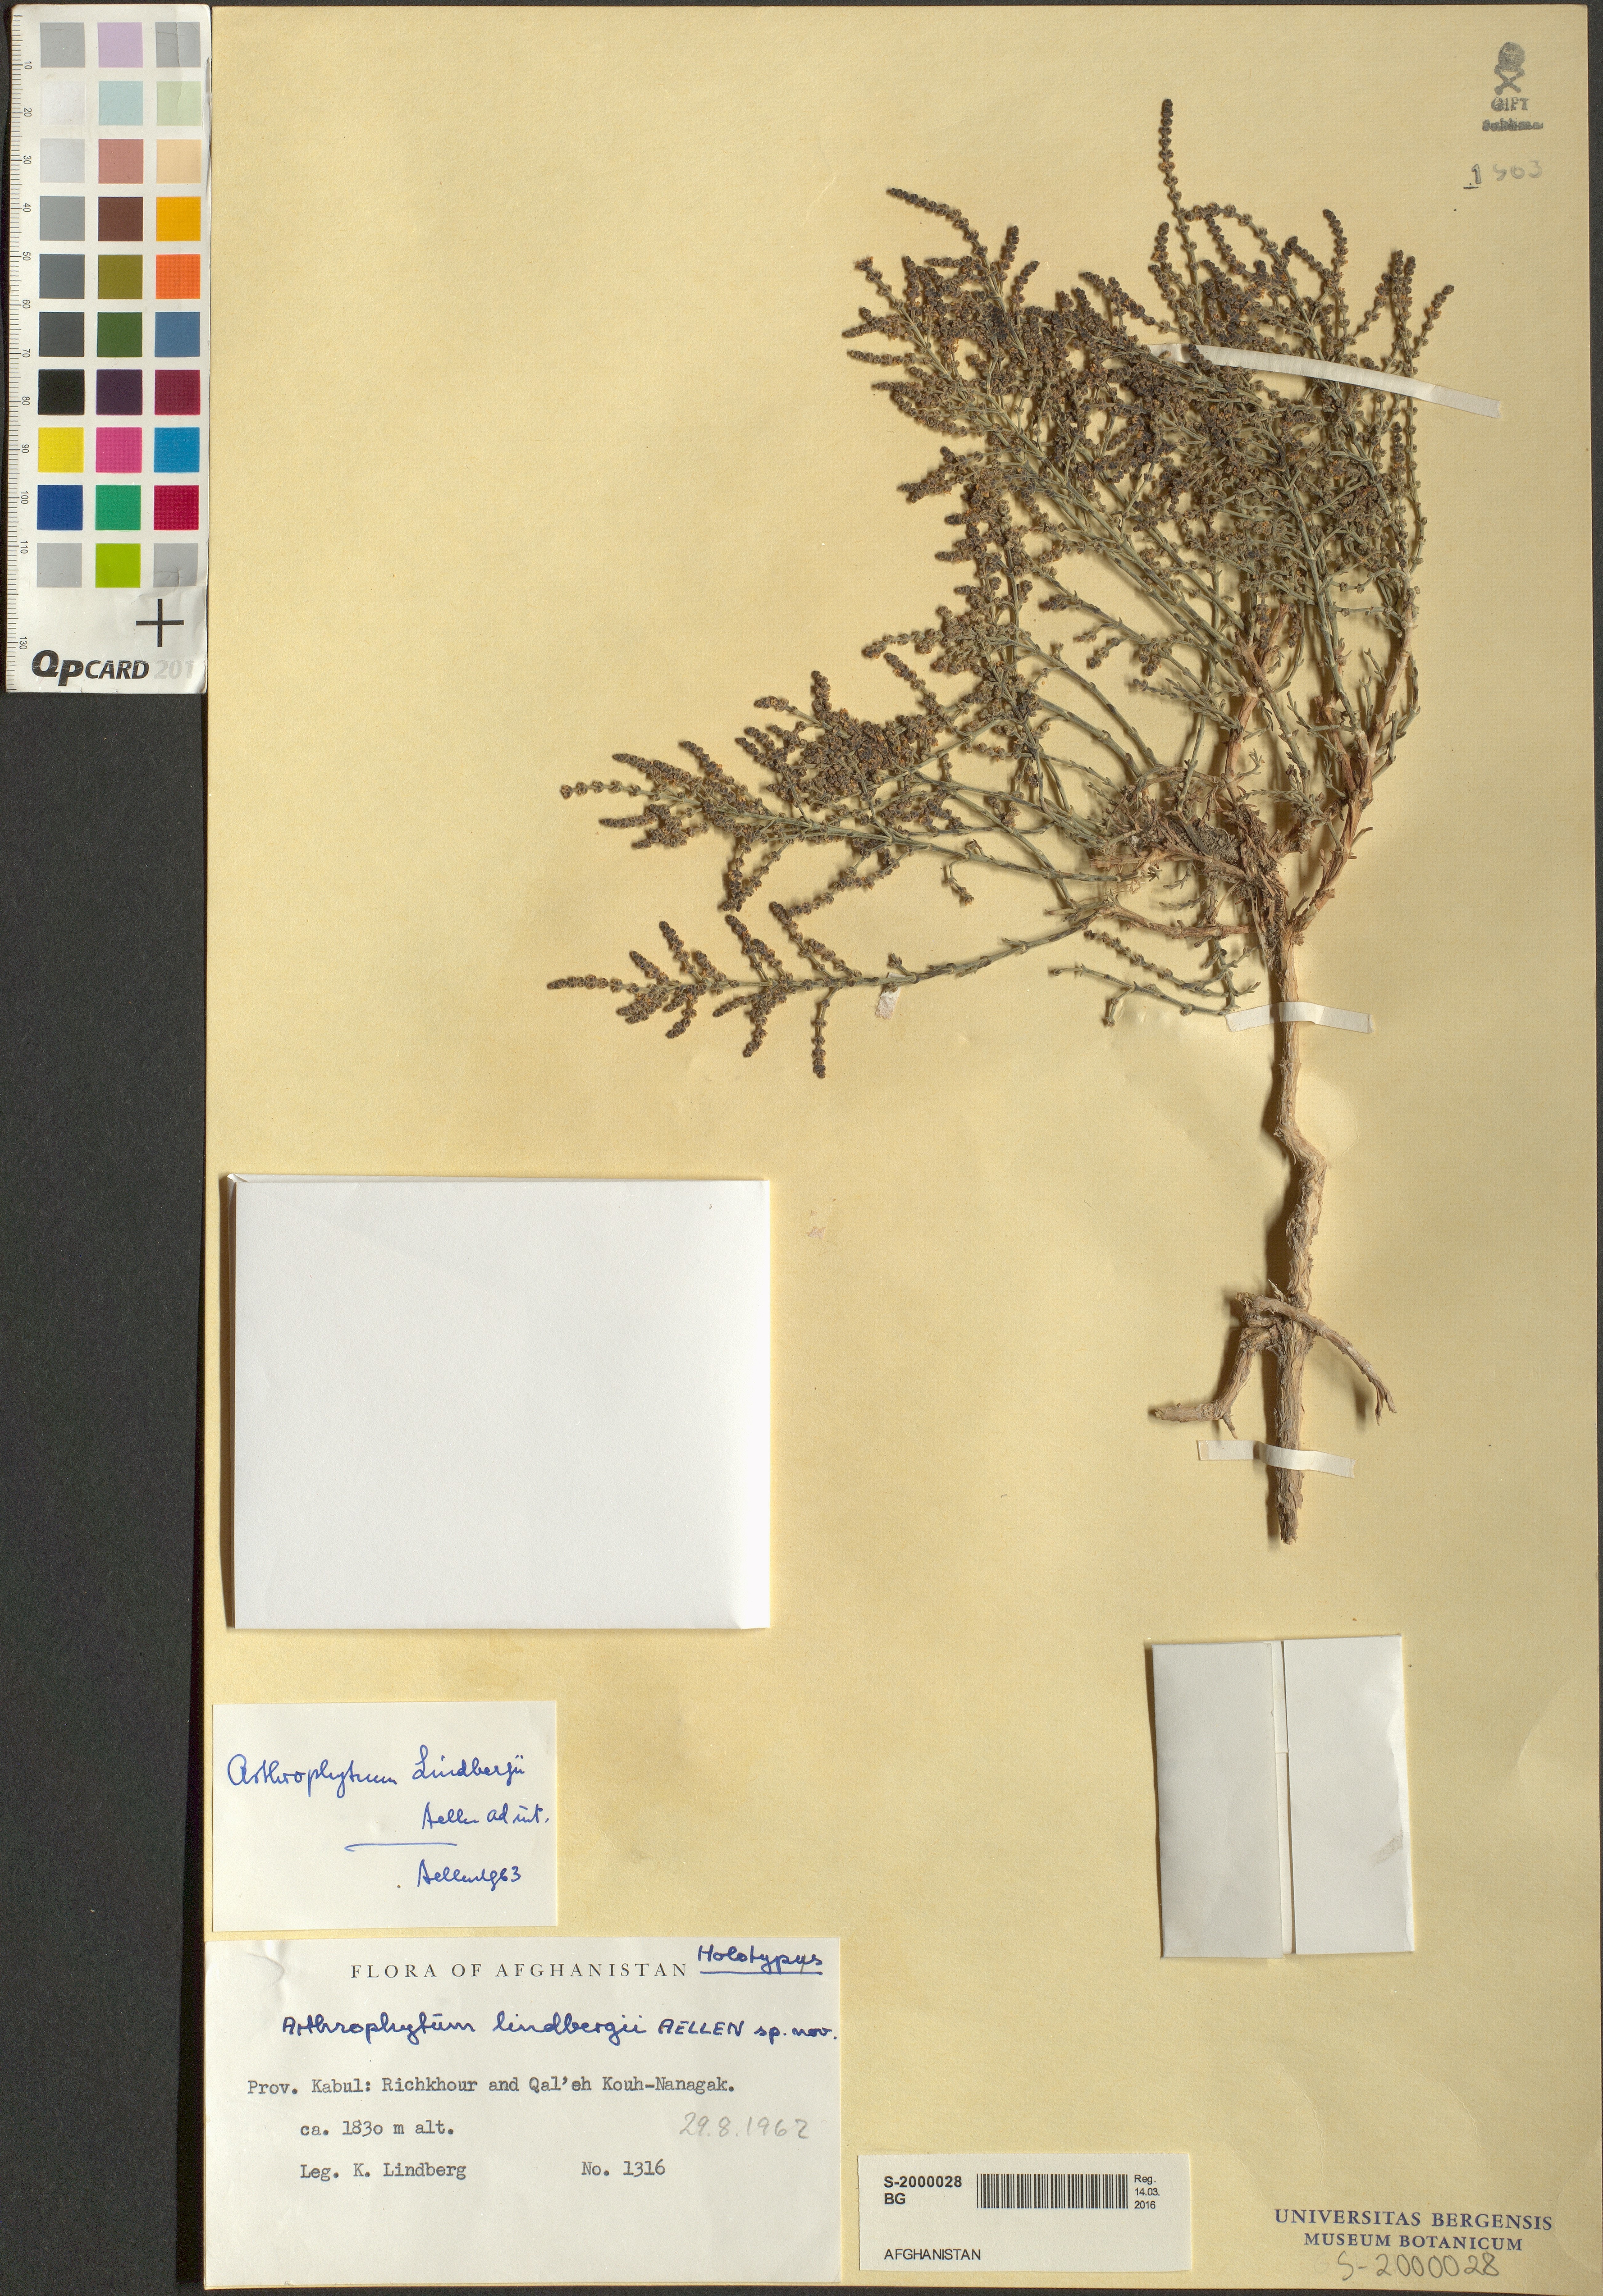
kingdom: Plantae
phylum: Tracheophyta
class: Magnoliopsida
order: Caryophyllales
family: Amaranthaceae
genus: Haloxylon
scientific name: Haloxylon griffithii
